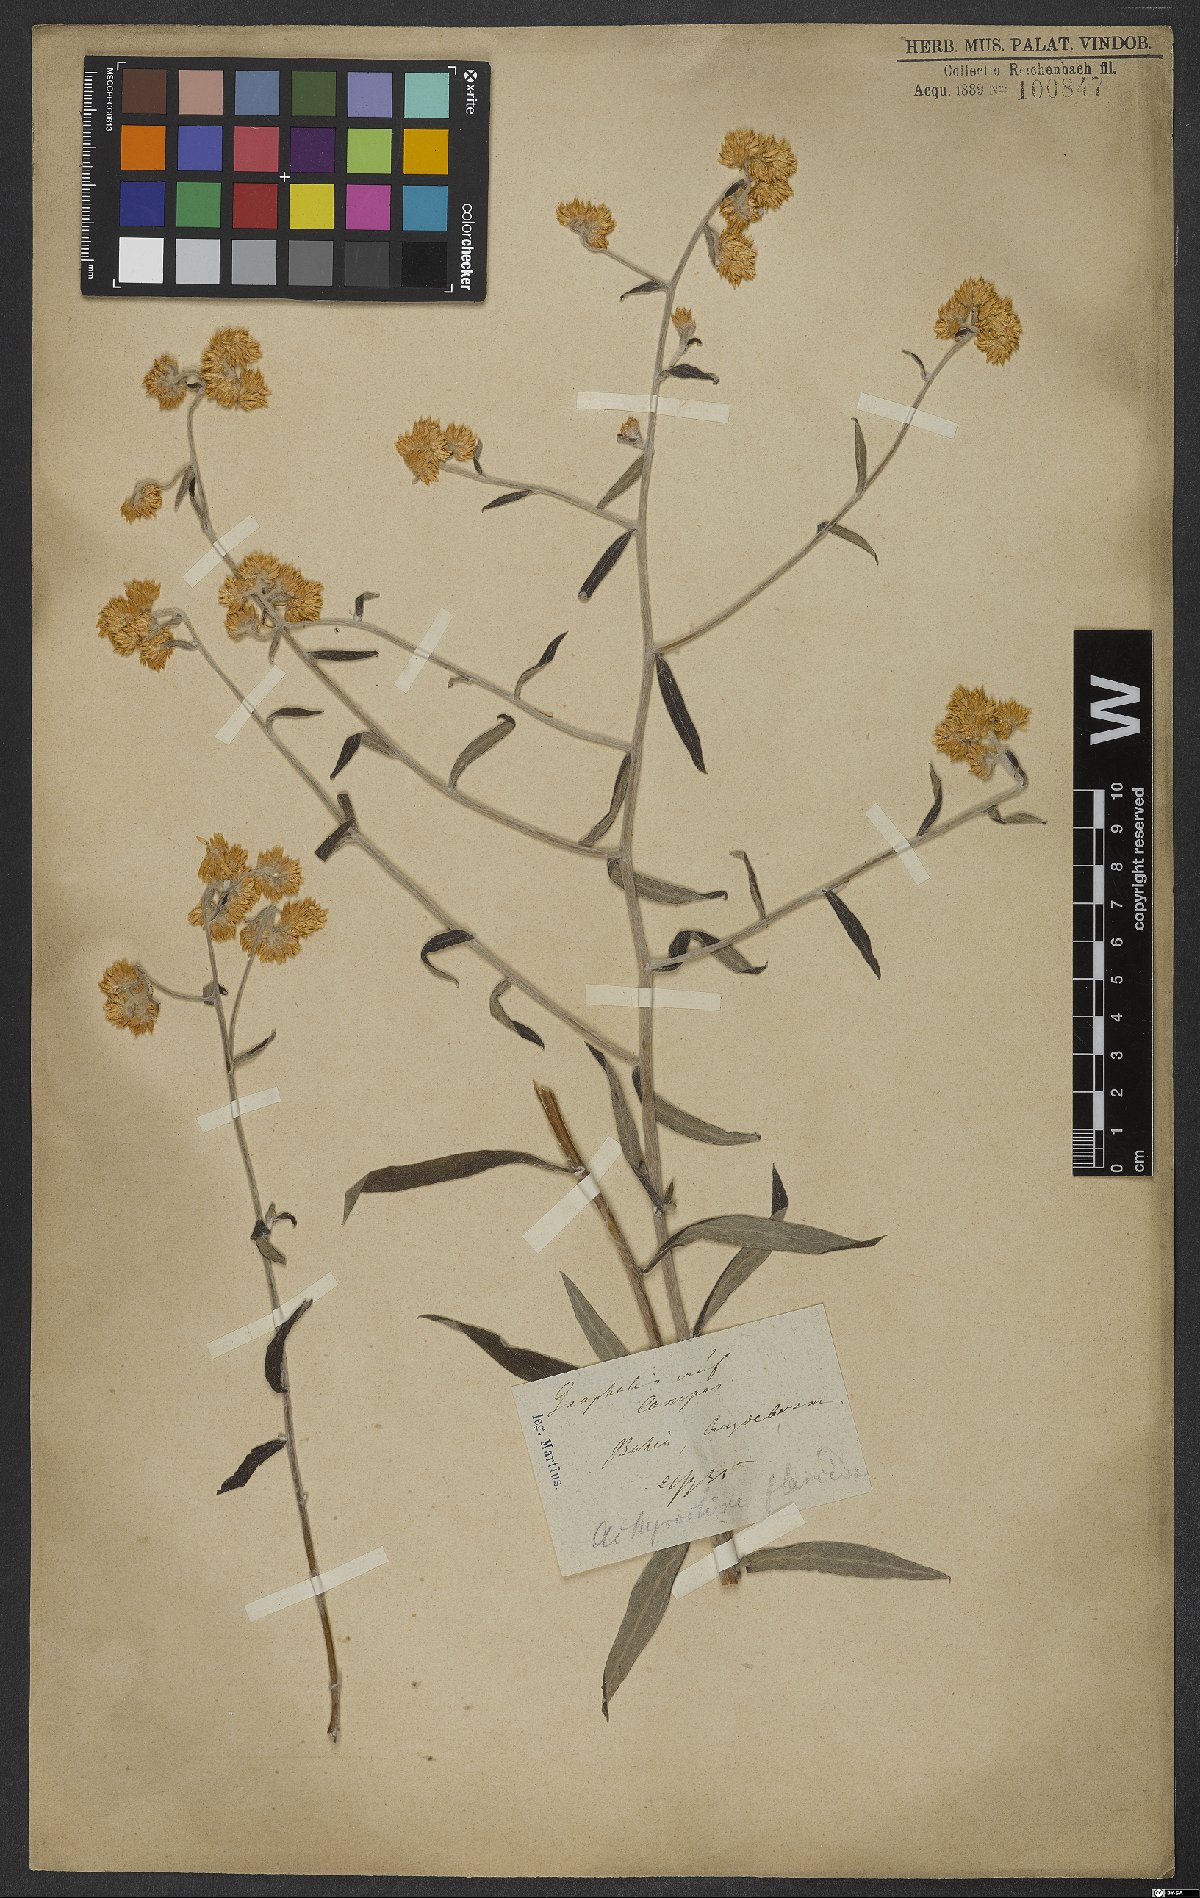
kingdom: Plantae
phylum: Tracheophyta
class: Magnoliopsida
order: Asterales
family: Asteraceae
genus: Achyrocline
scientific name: Achyrocline flaccida
